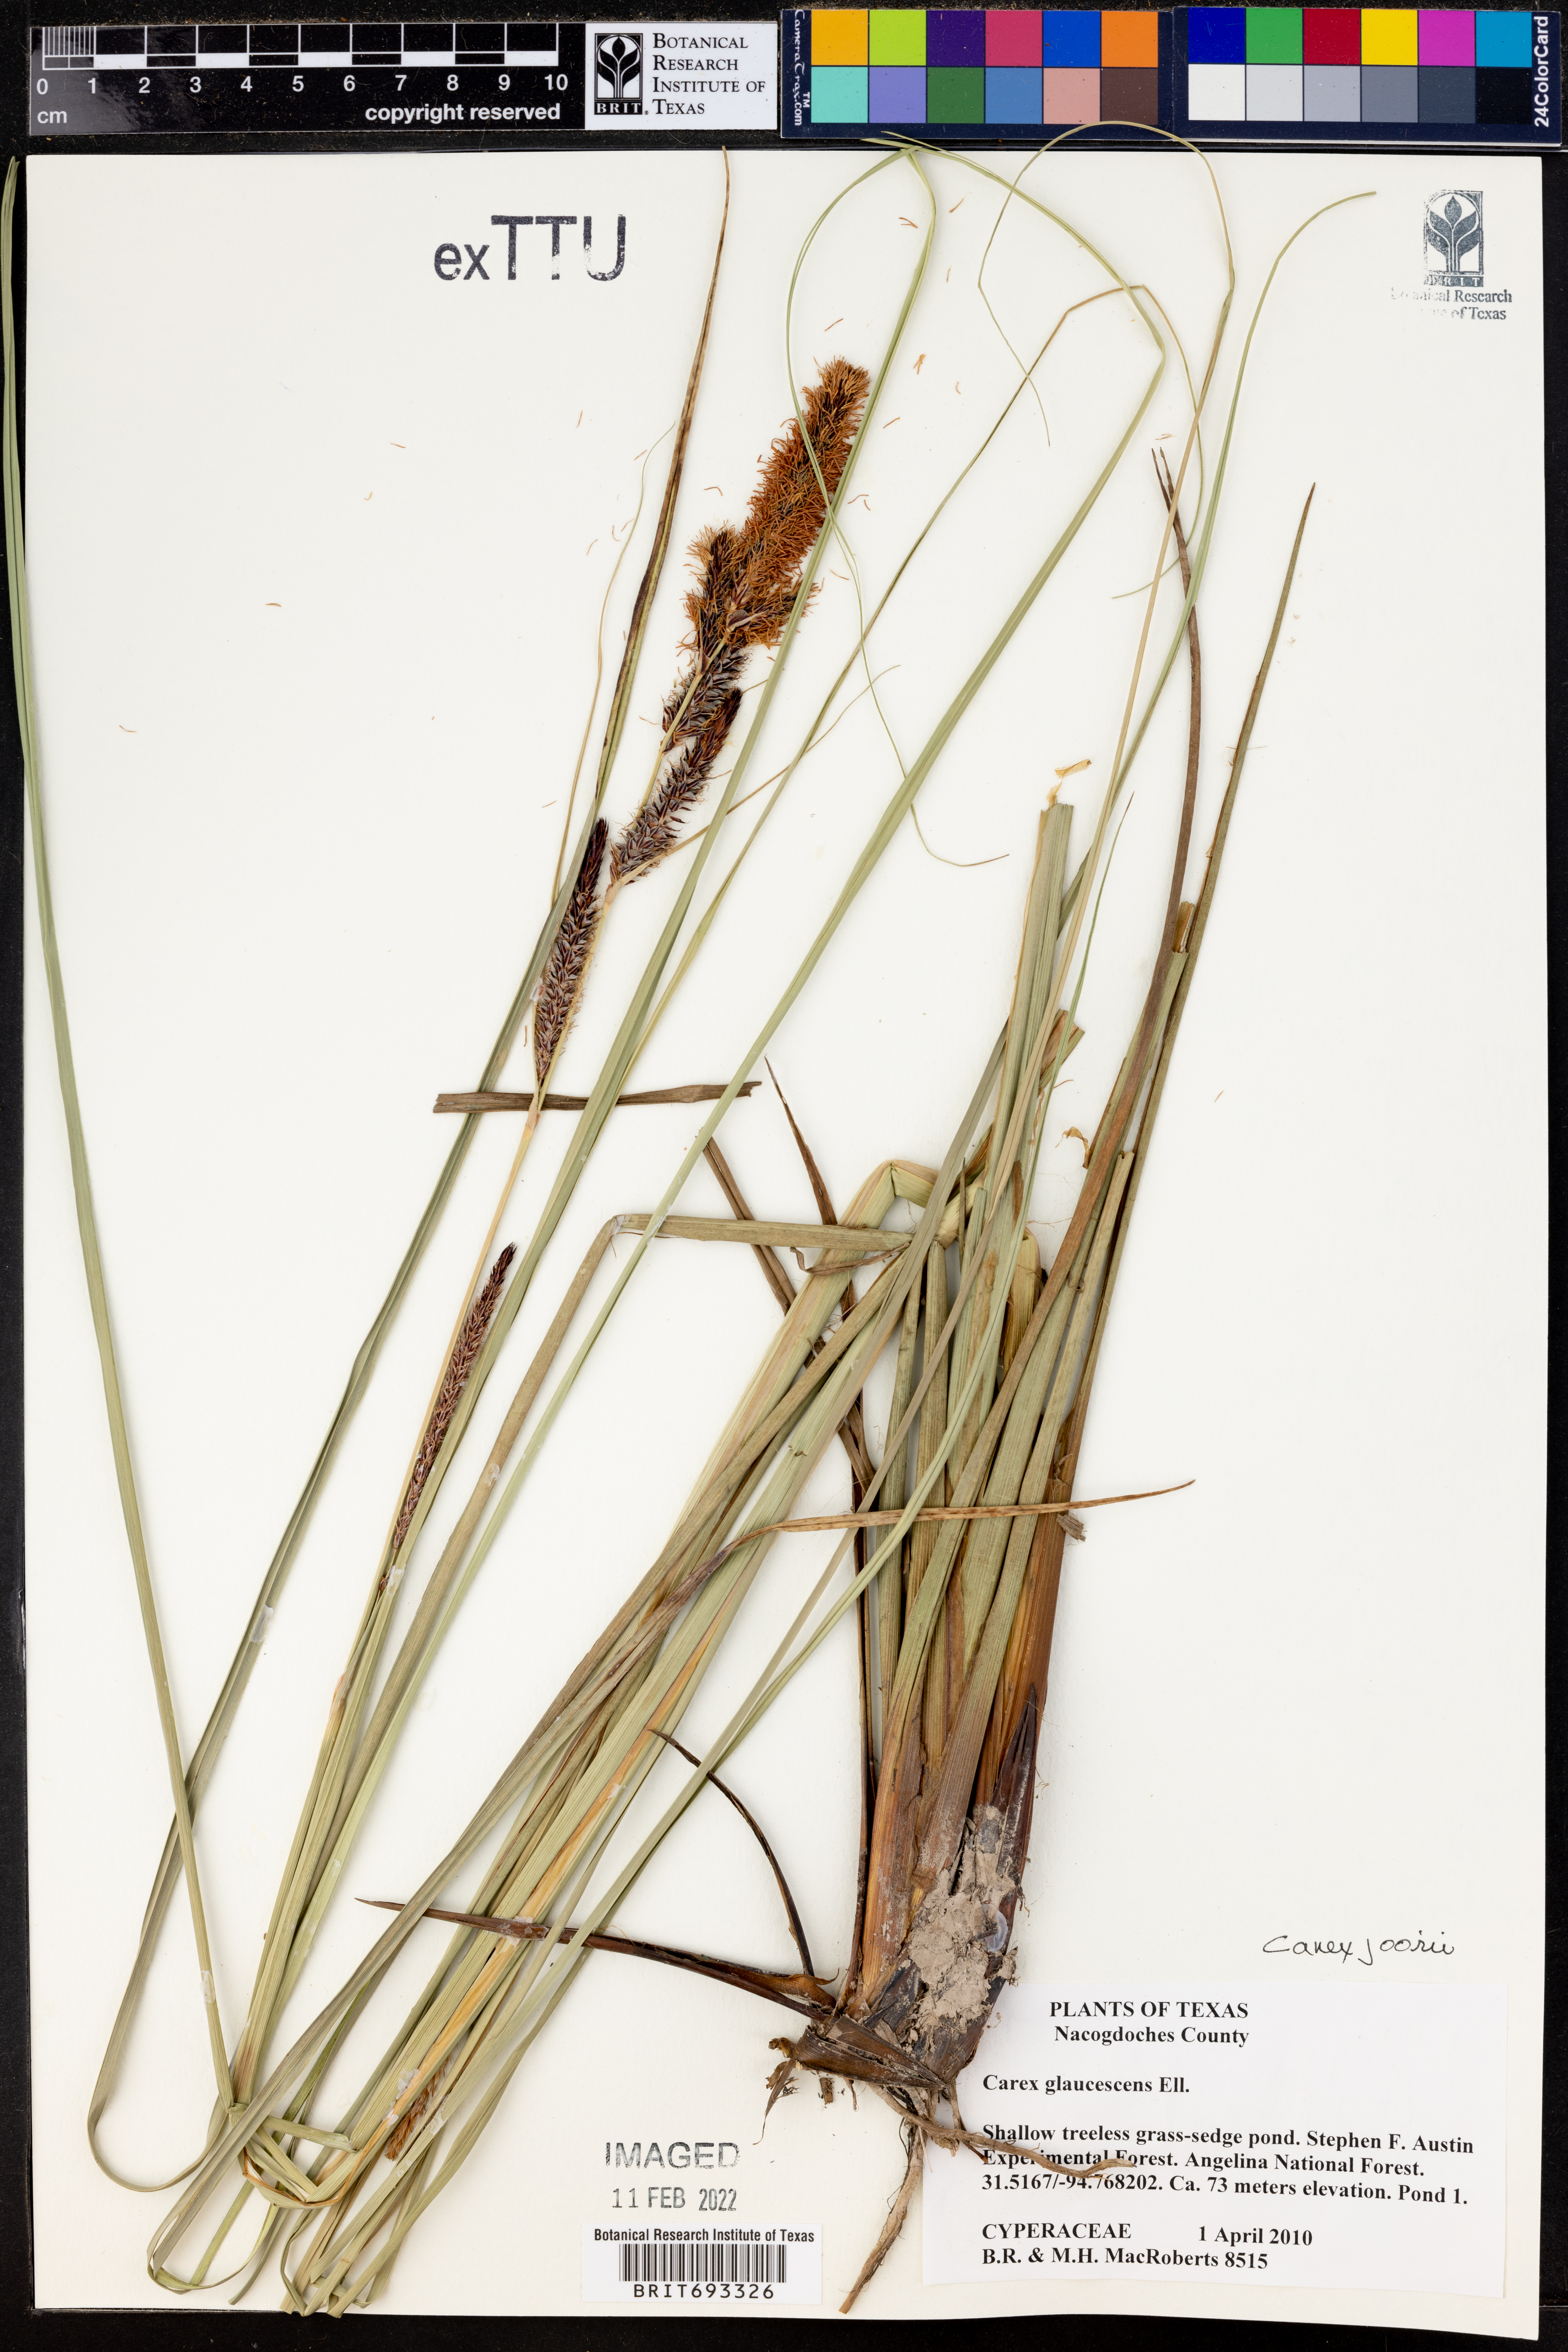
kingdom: Plantae
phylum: Tracheophyta
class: Liliopsida
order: Poales
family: Cyperaceae
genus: Carex
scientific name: Carex joorii
